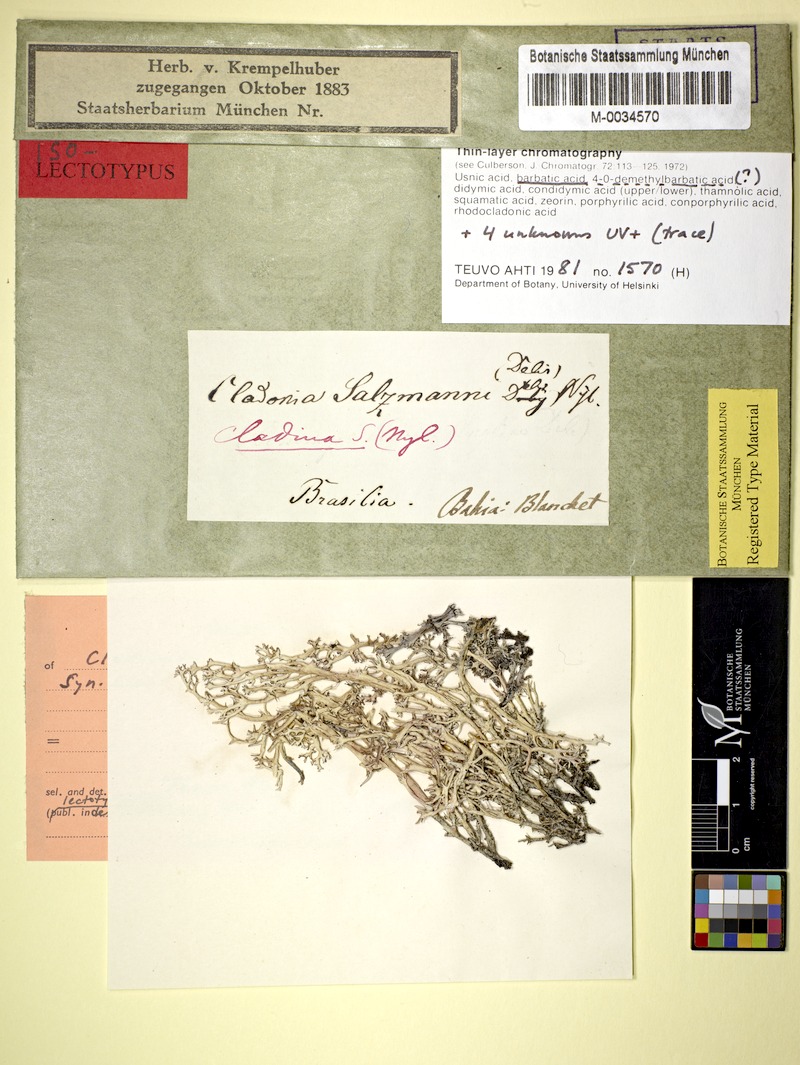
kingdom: Fungi
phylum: Ascomycota
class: Lecanoromycetes
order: Lecanorales
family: Cladoniaceae
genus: Cladonia
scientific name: Cladonia salzmannii
